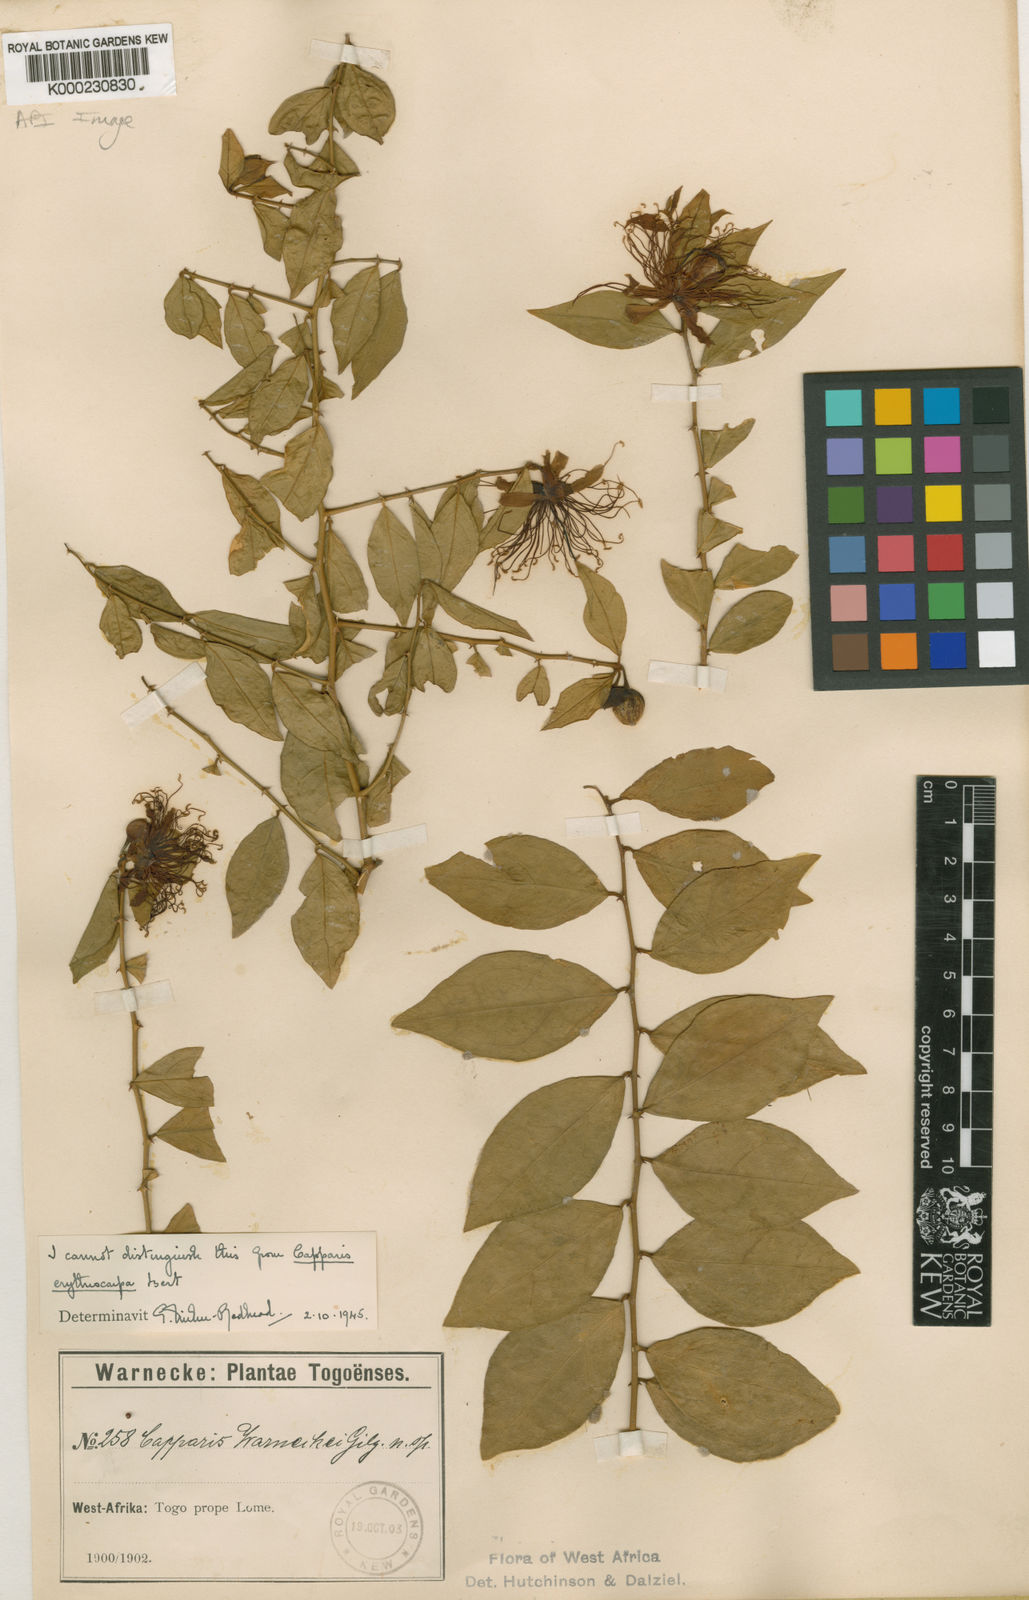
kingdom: Plantae
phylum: Tracheophyta
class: Magnoliopsida
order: Brassicales
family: Capparaceae
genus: Capparis
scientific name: Capparis erythrocarpos
